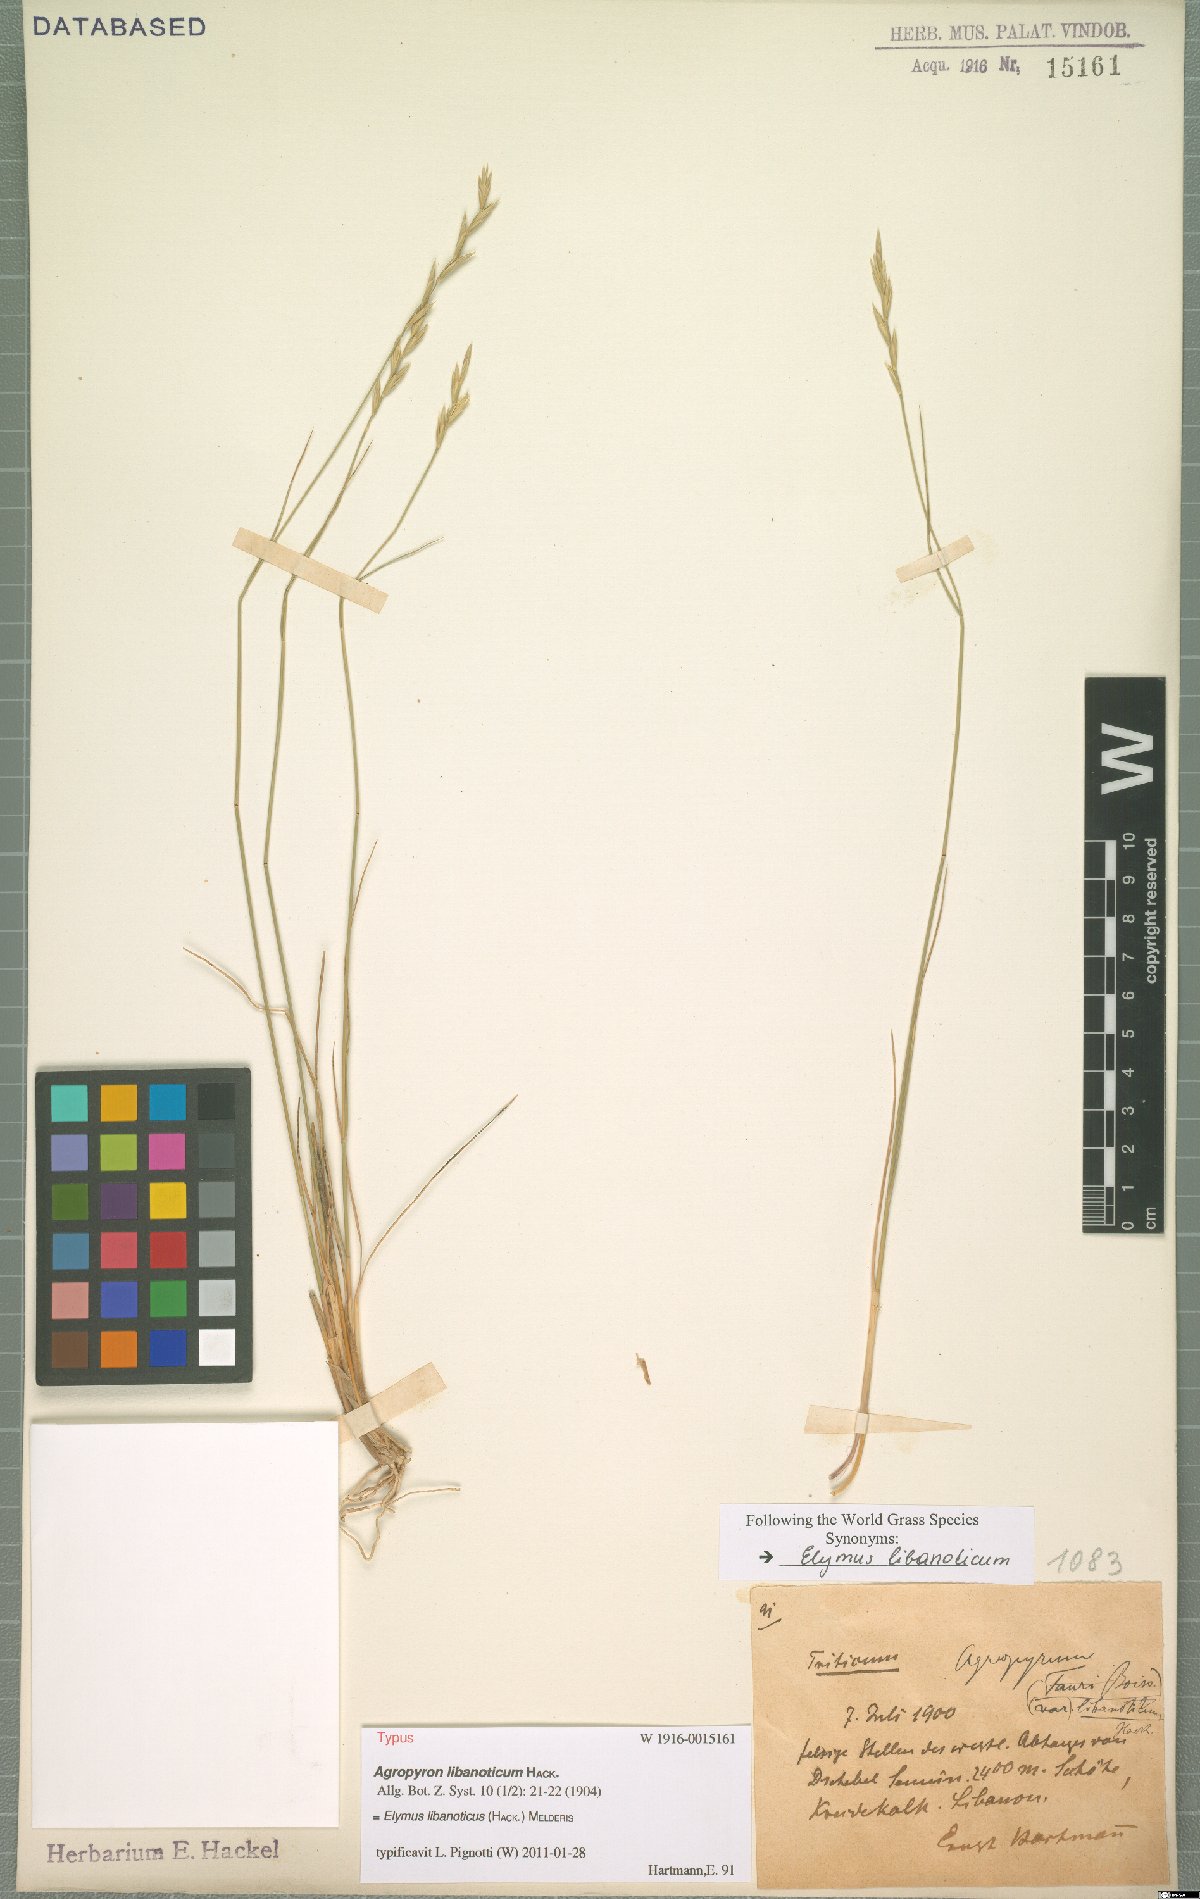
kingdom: Plantae
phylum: Tracheophyta
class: Liliopsida
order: Poales
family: Poaceae
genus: Pseudoroegneria
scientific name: Pseudoroegneria libanotica
